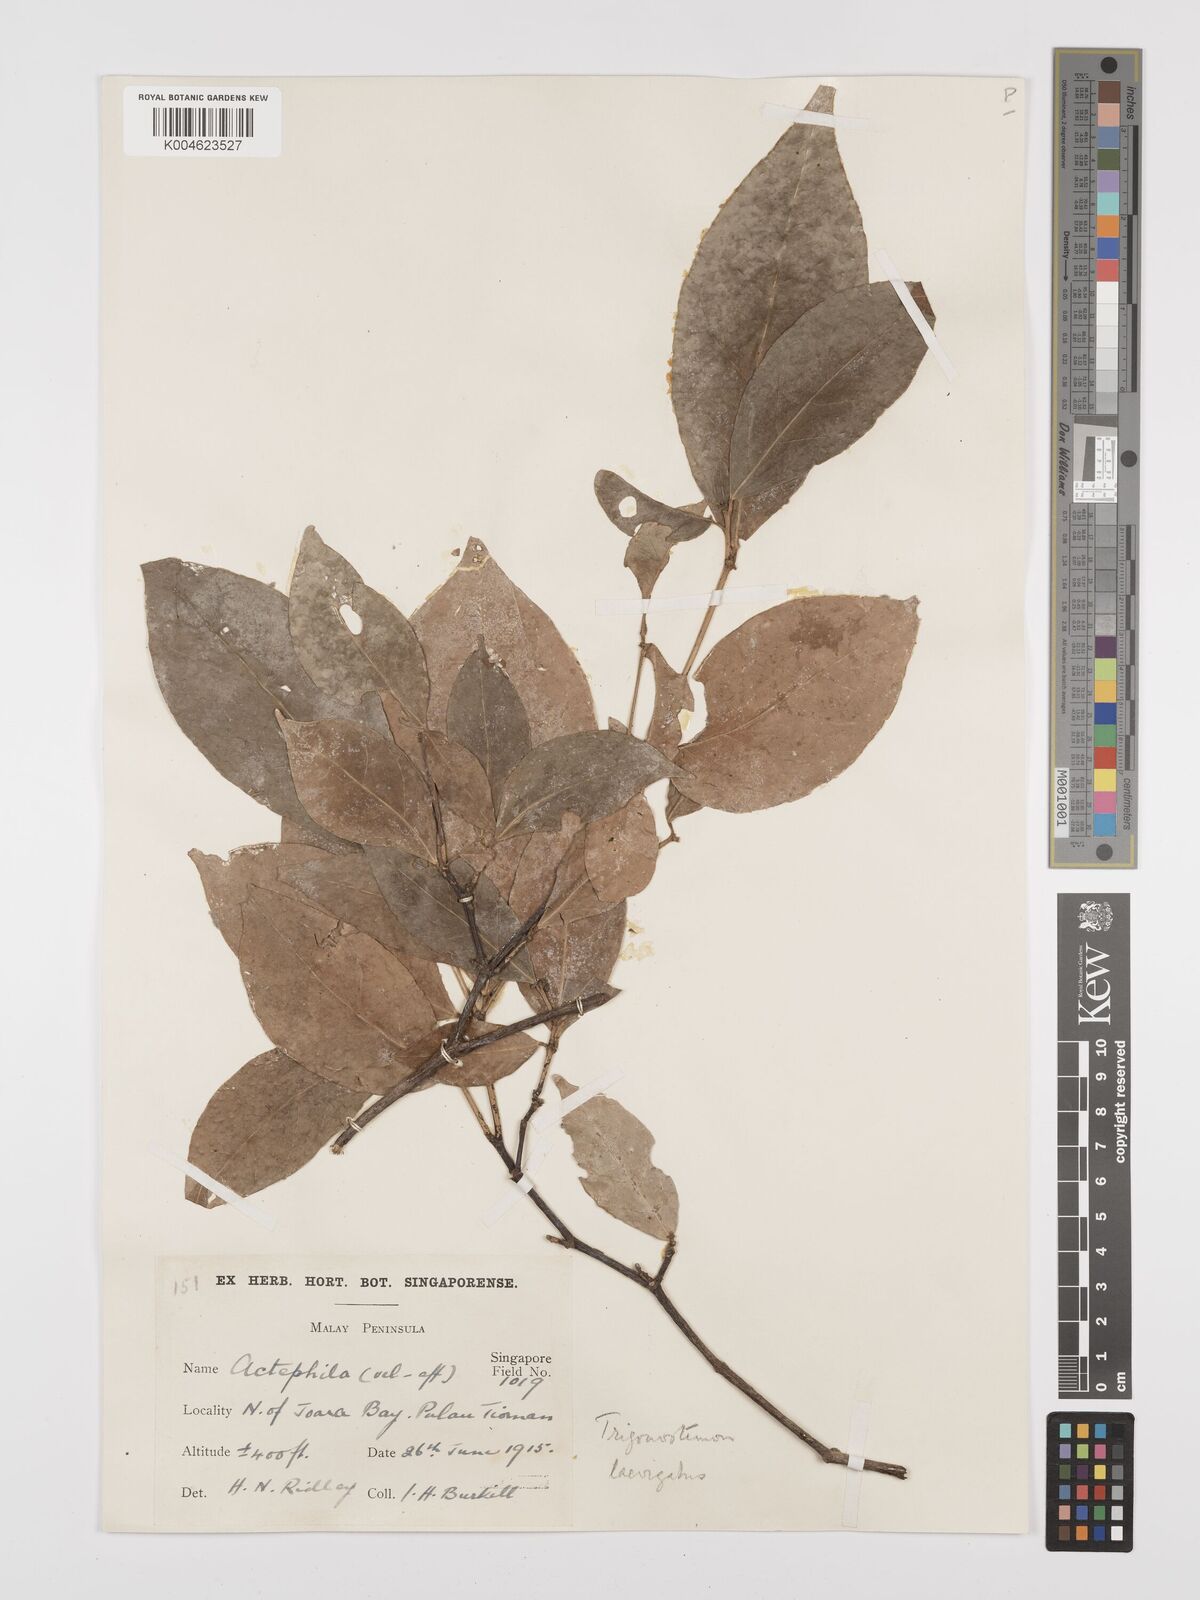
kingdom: Plantae
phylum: Tracheophyta
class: Magnoliopsida
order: Malpighiales
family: Euphorbiaceae
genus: Trigonostemon
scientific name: Trigonostemon laevigatus
